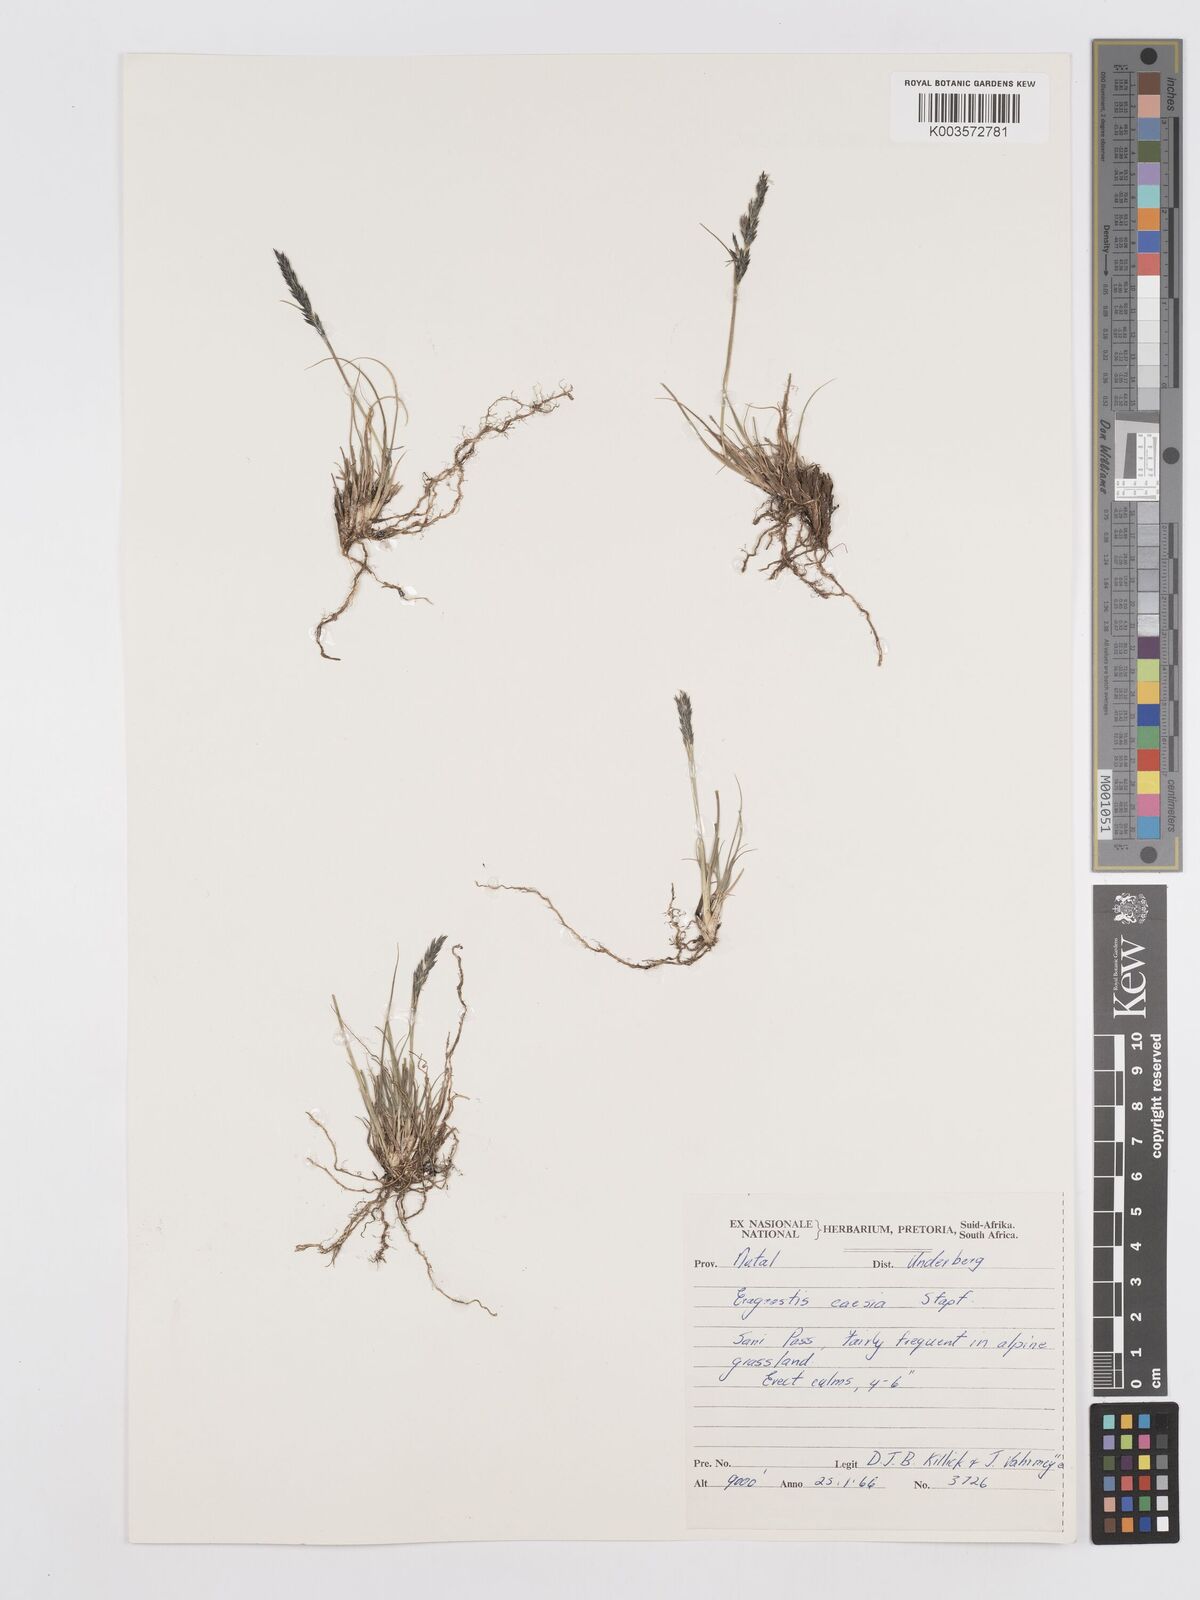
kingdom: Plantae
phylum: Tracheophyta
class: Liliopsida
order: Poales
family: Poaceae
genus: Eragrostis
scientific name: Eragrostis caesia
